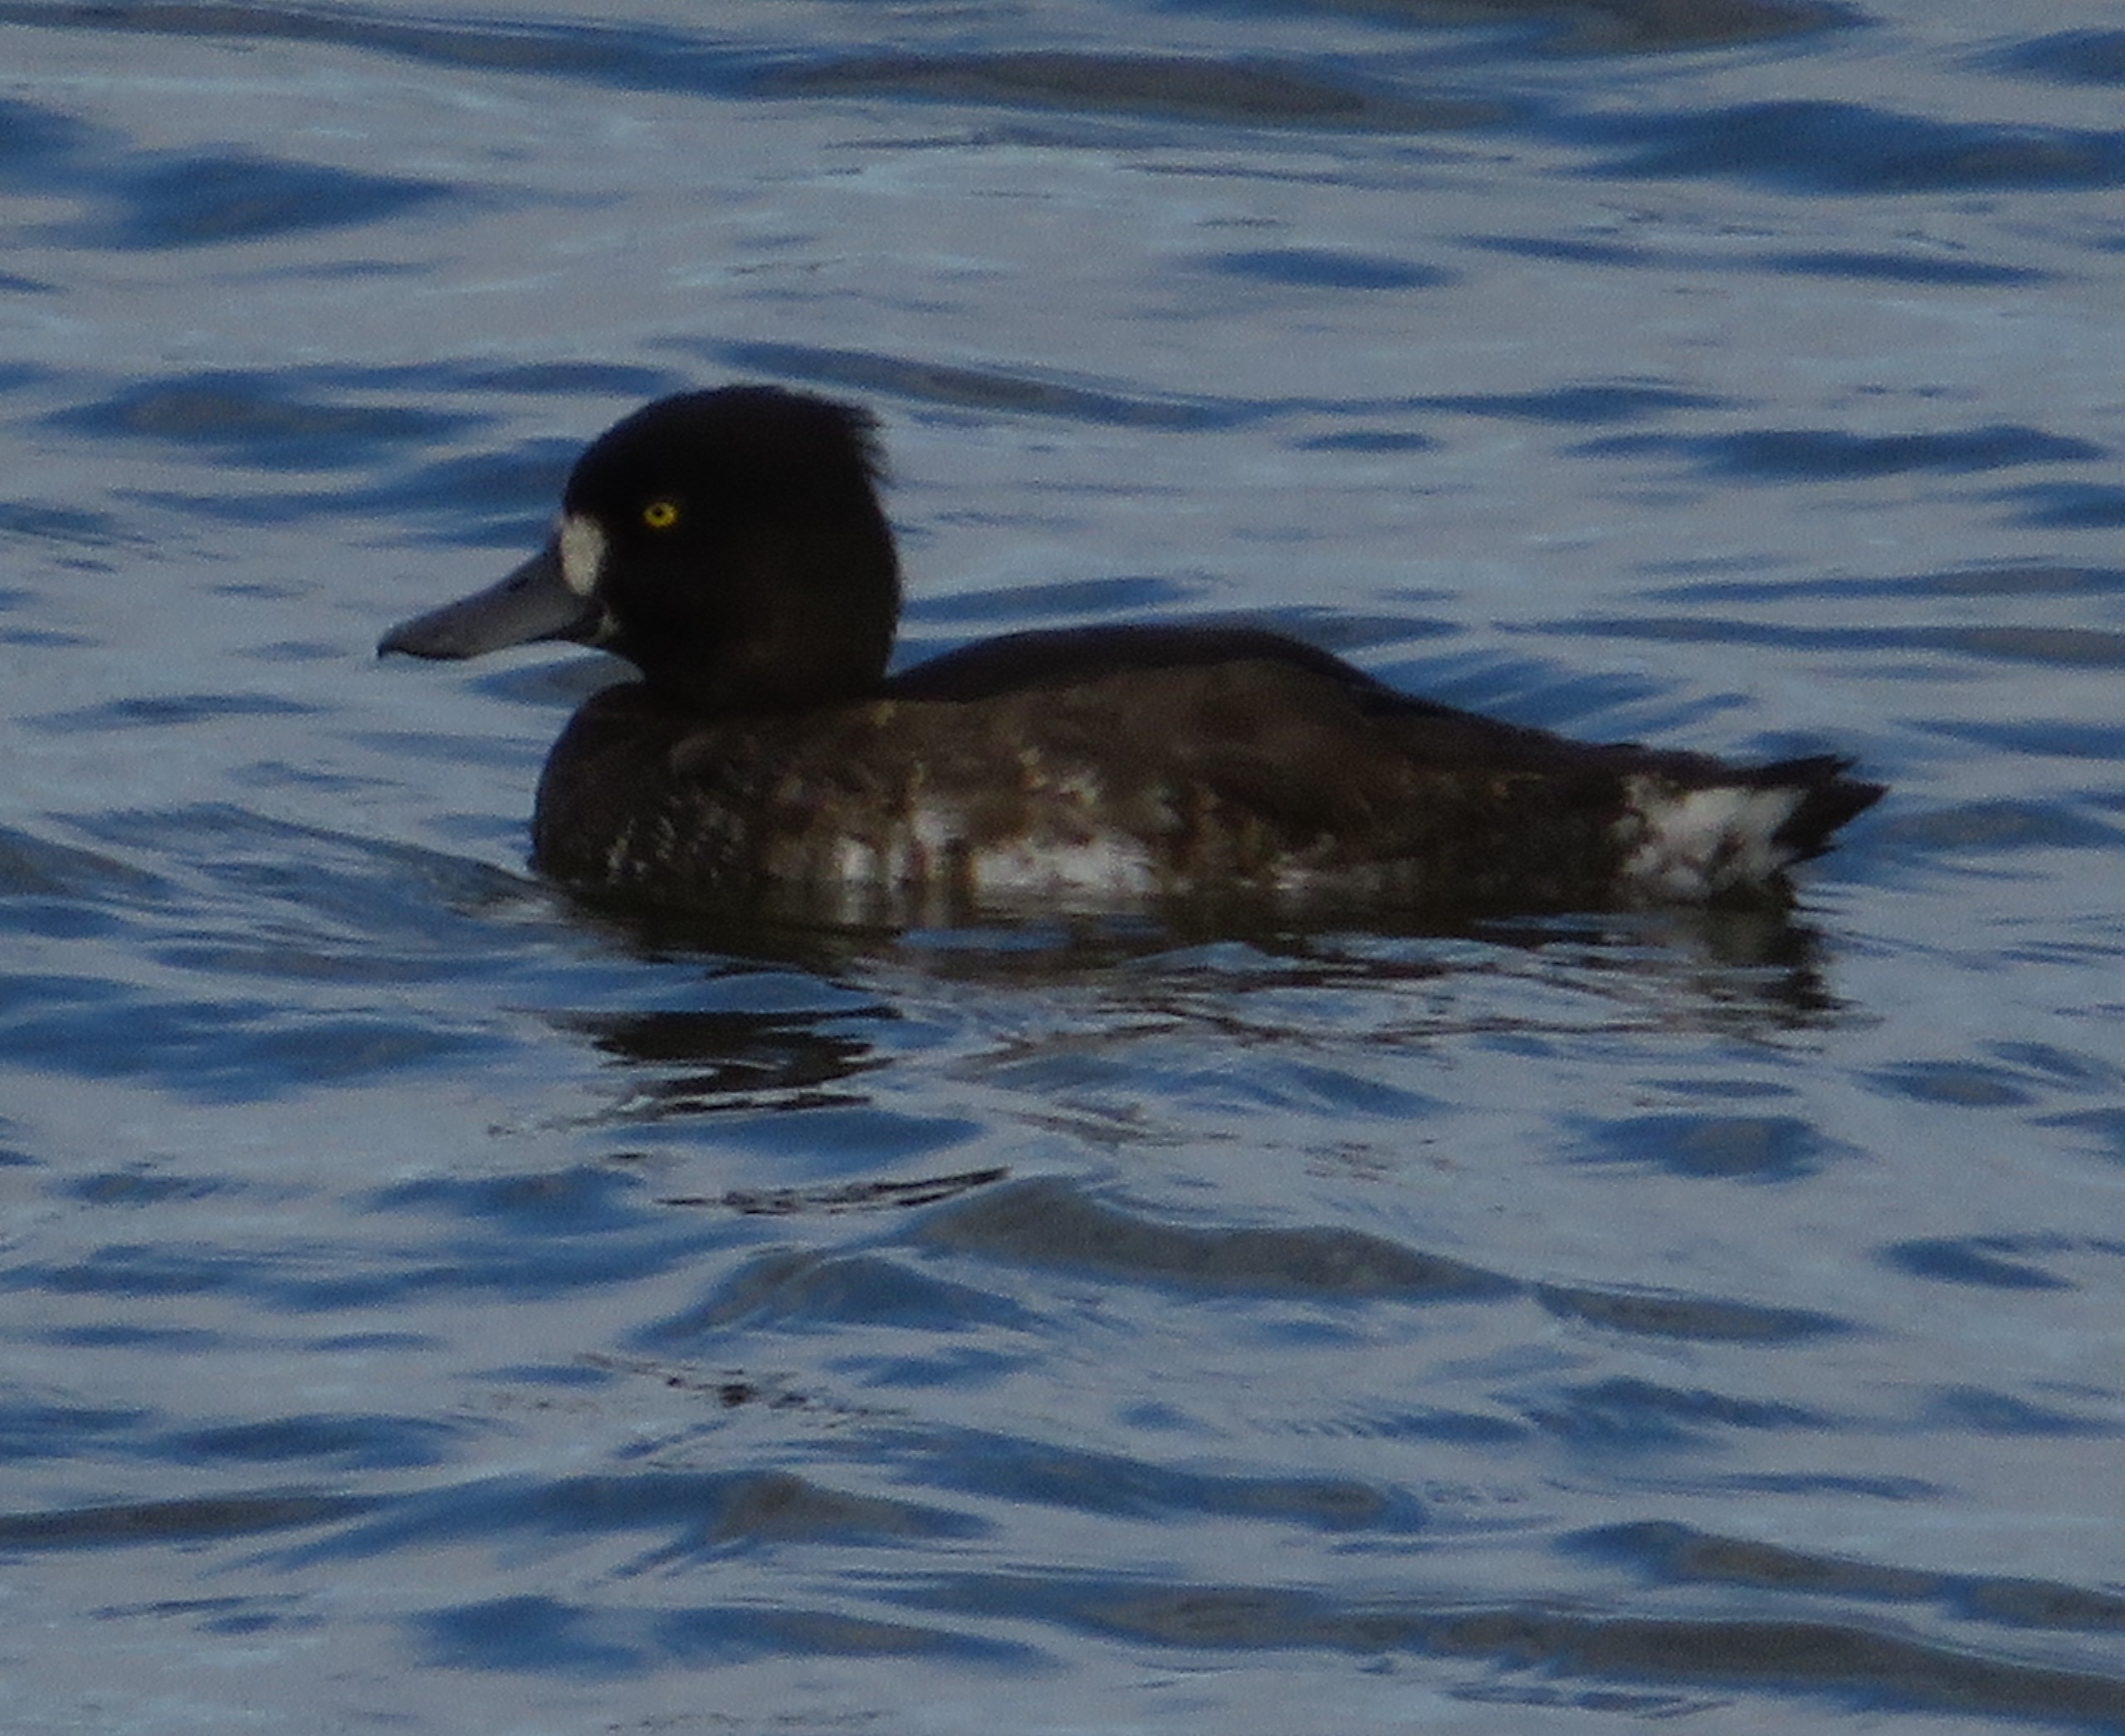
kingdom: Animalia
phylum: Chordata
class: Aves
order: Anseriformes
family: Anatidae
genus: Aythya
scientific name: Aythya fuligula
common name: Troldand
